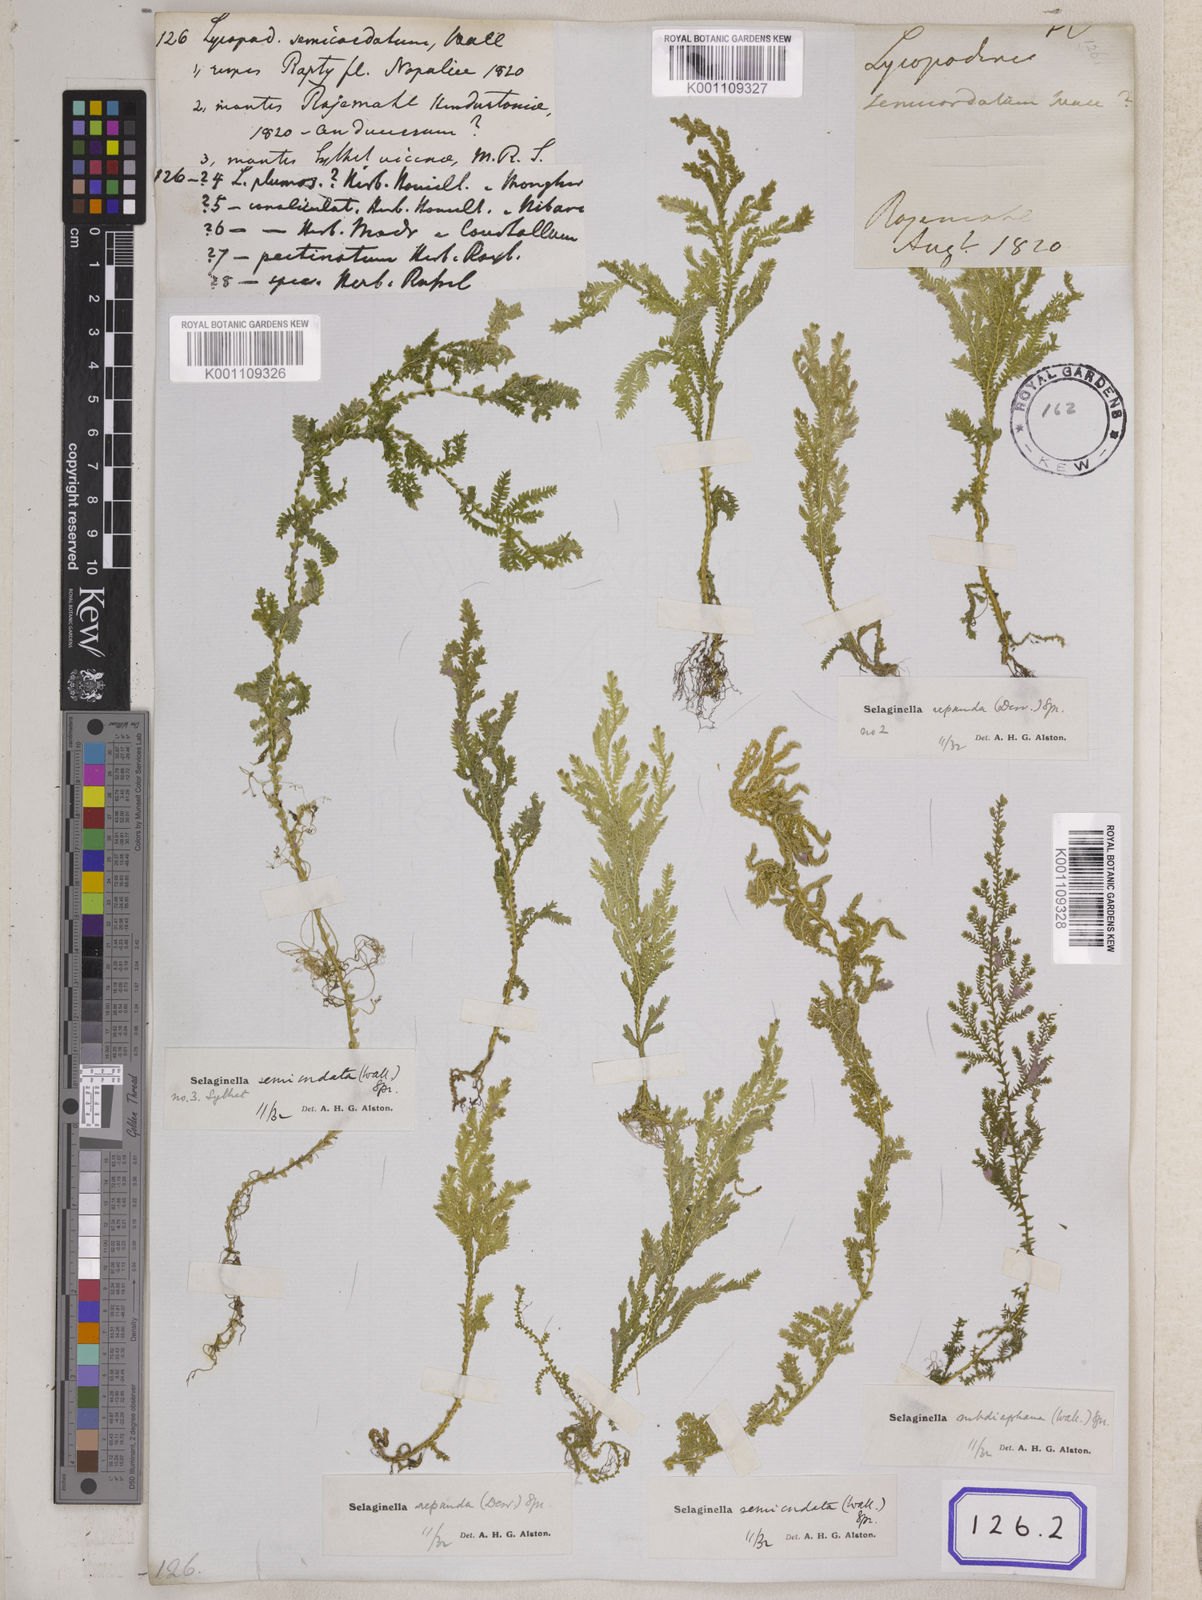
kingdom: Plantae
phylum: Tracheophyta
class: Lycopodiopsida
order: Selaginellales
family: Selaginellaceae
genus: Selaginella
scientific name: Selaginella semicordata
